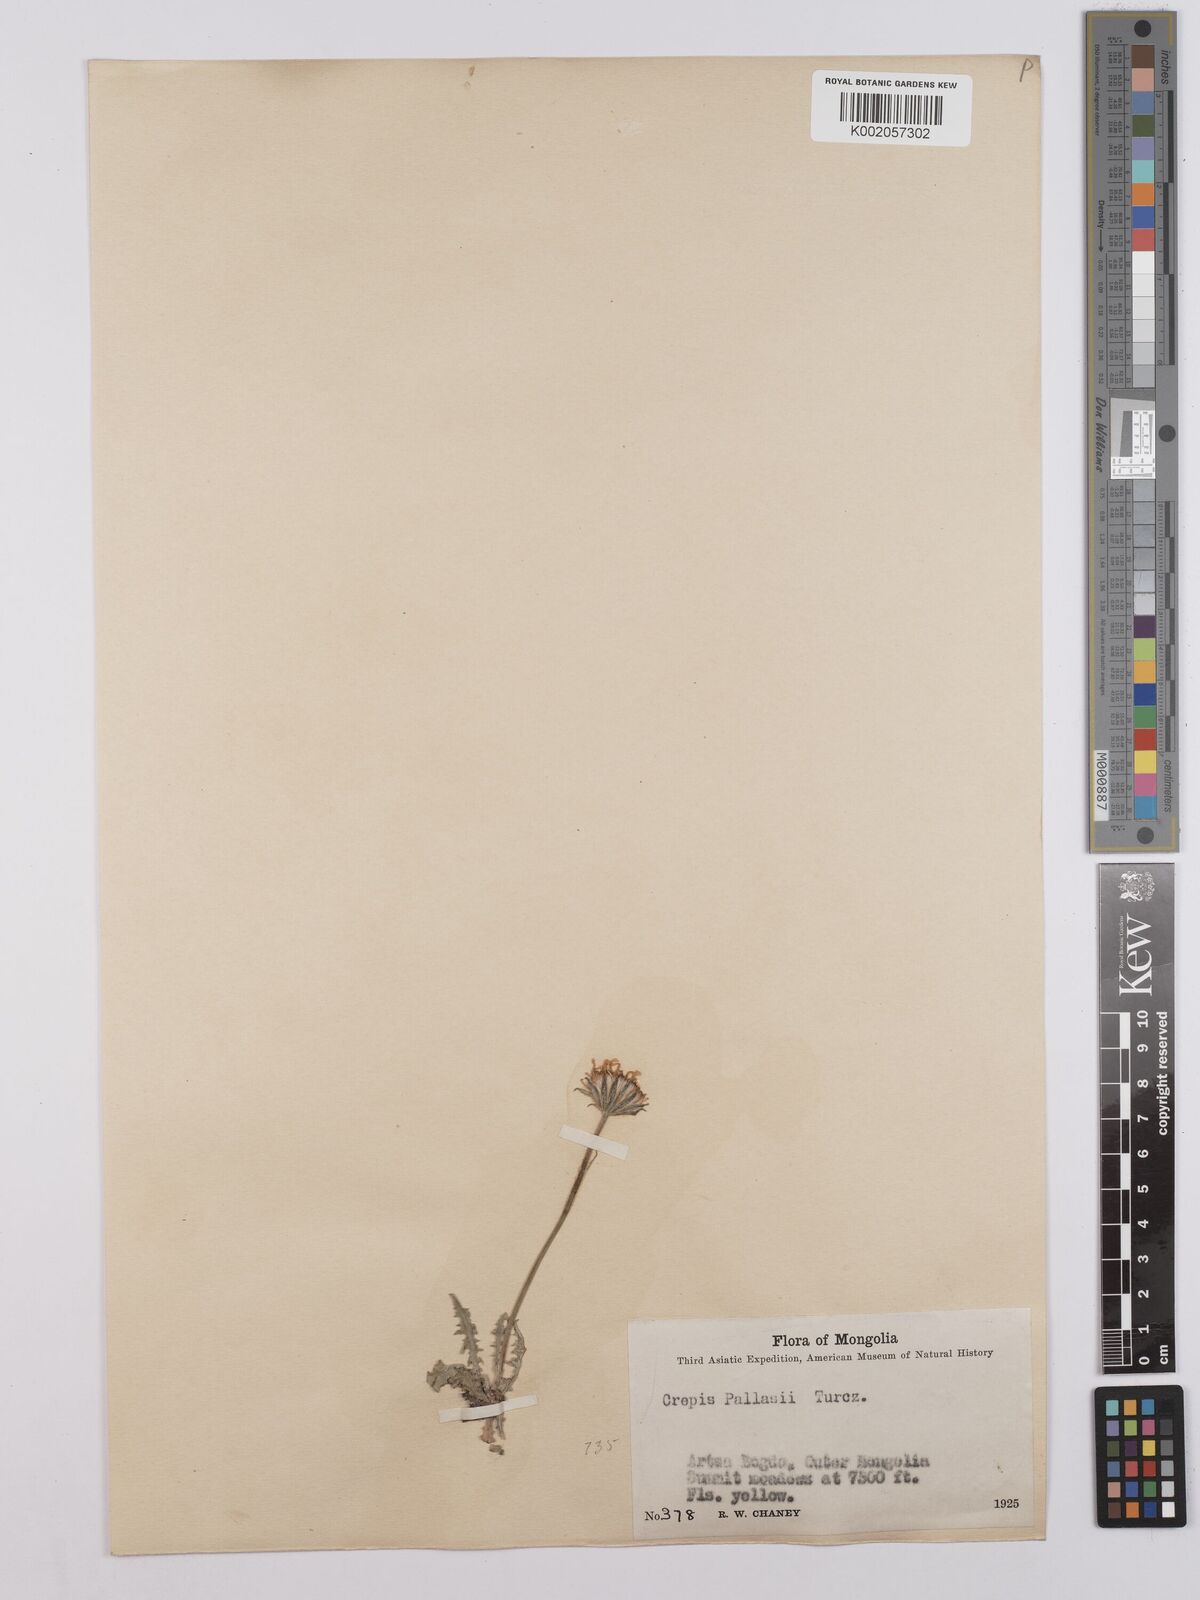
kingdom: Plantae
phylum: Tracheophyta
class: Magnoliopsida
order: Asterales
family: Asteraceae
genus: Crepis
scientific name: Crepis crocea
